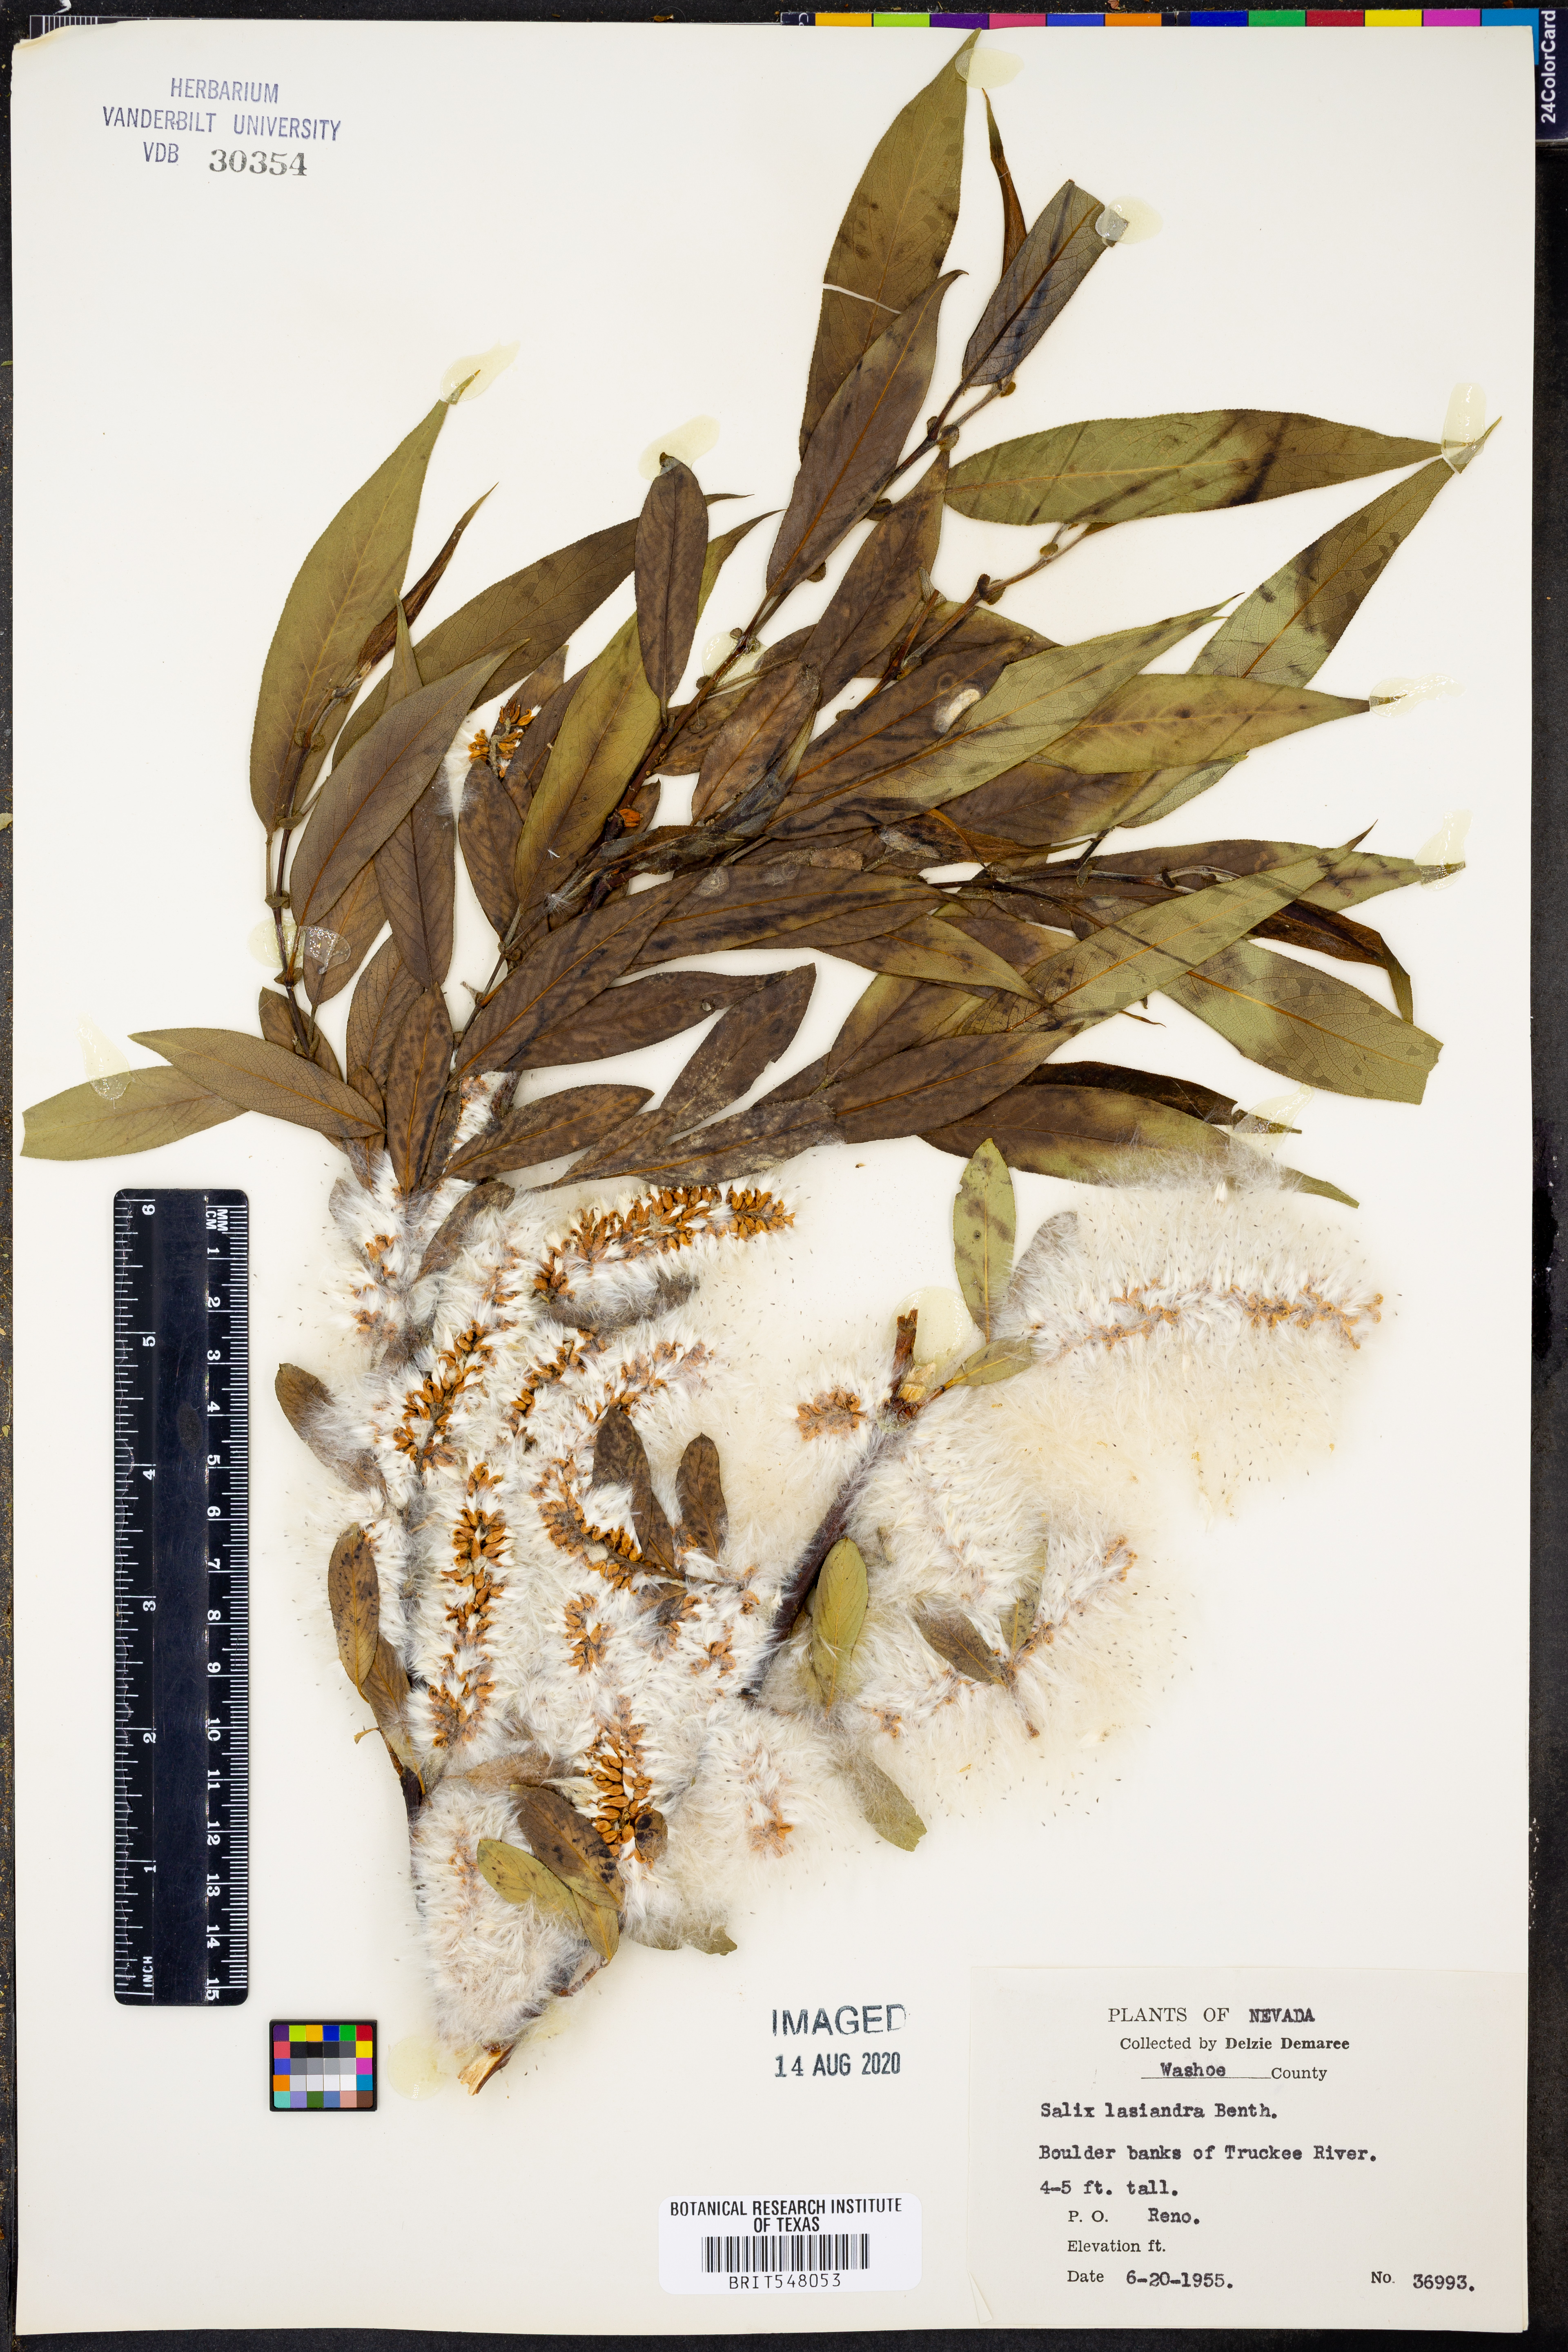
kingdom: Plantae
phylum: Tracheophyta
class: Magnoliopsida
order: Malpighiales
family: Salicaceae
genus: Salix
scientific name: Salix lucida
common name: Shining willow
